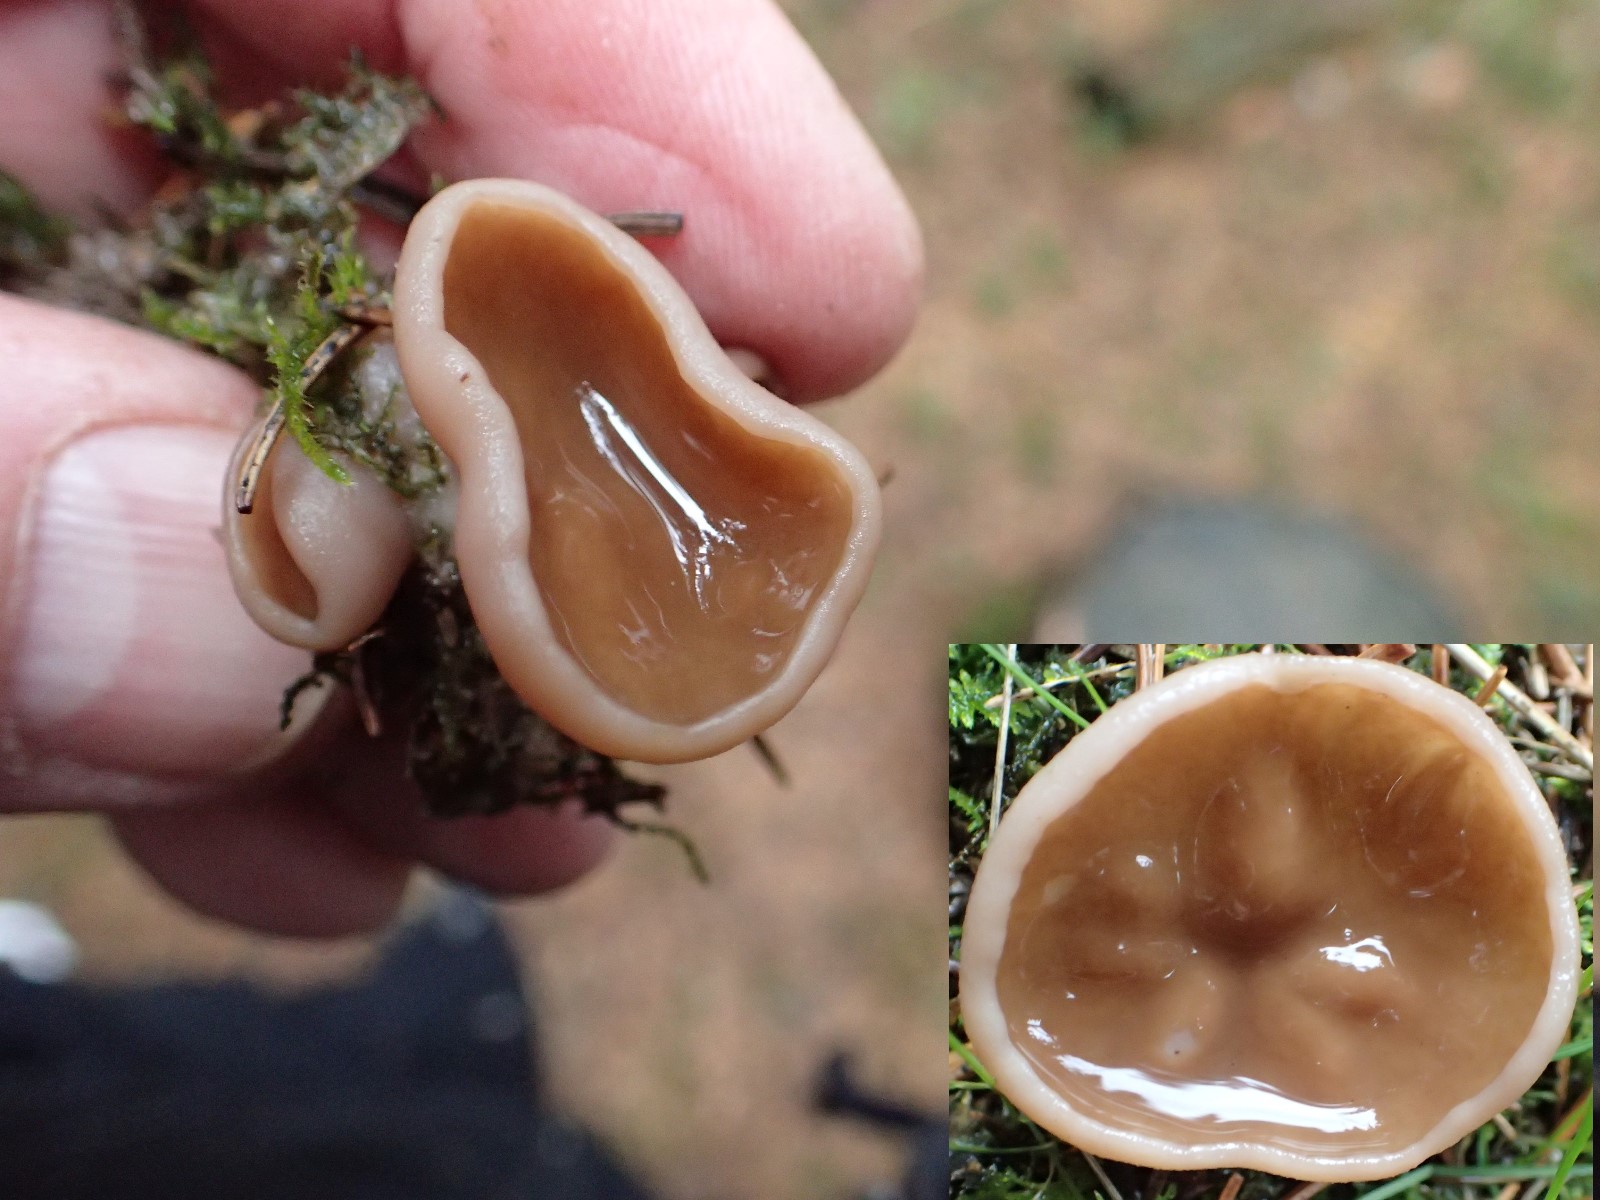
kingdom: Fungi
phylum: Ascomycota
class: Pezizomycetes
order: Pezizales
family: Discinaceae
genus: Discina
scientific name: Discina ancilis
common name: udbredt stenmorkel
